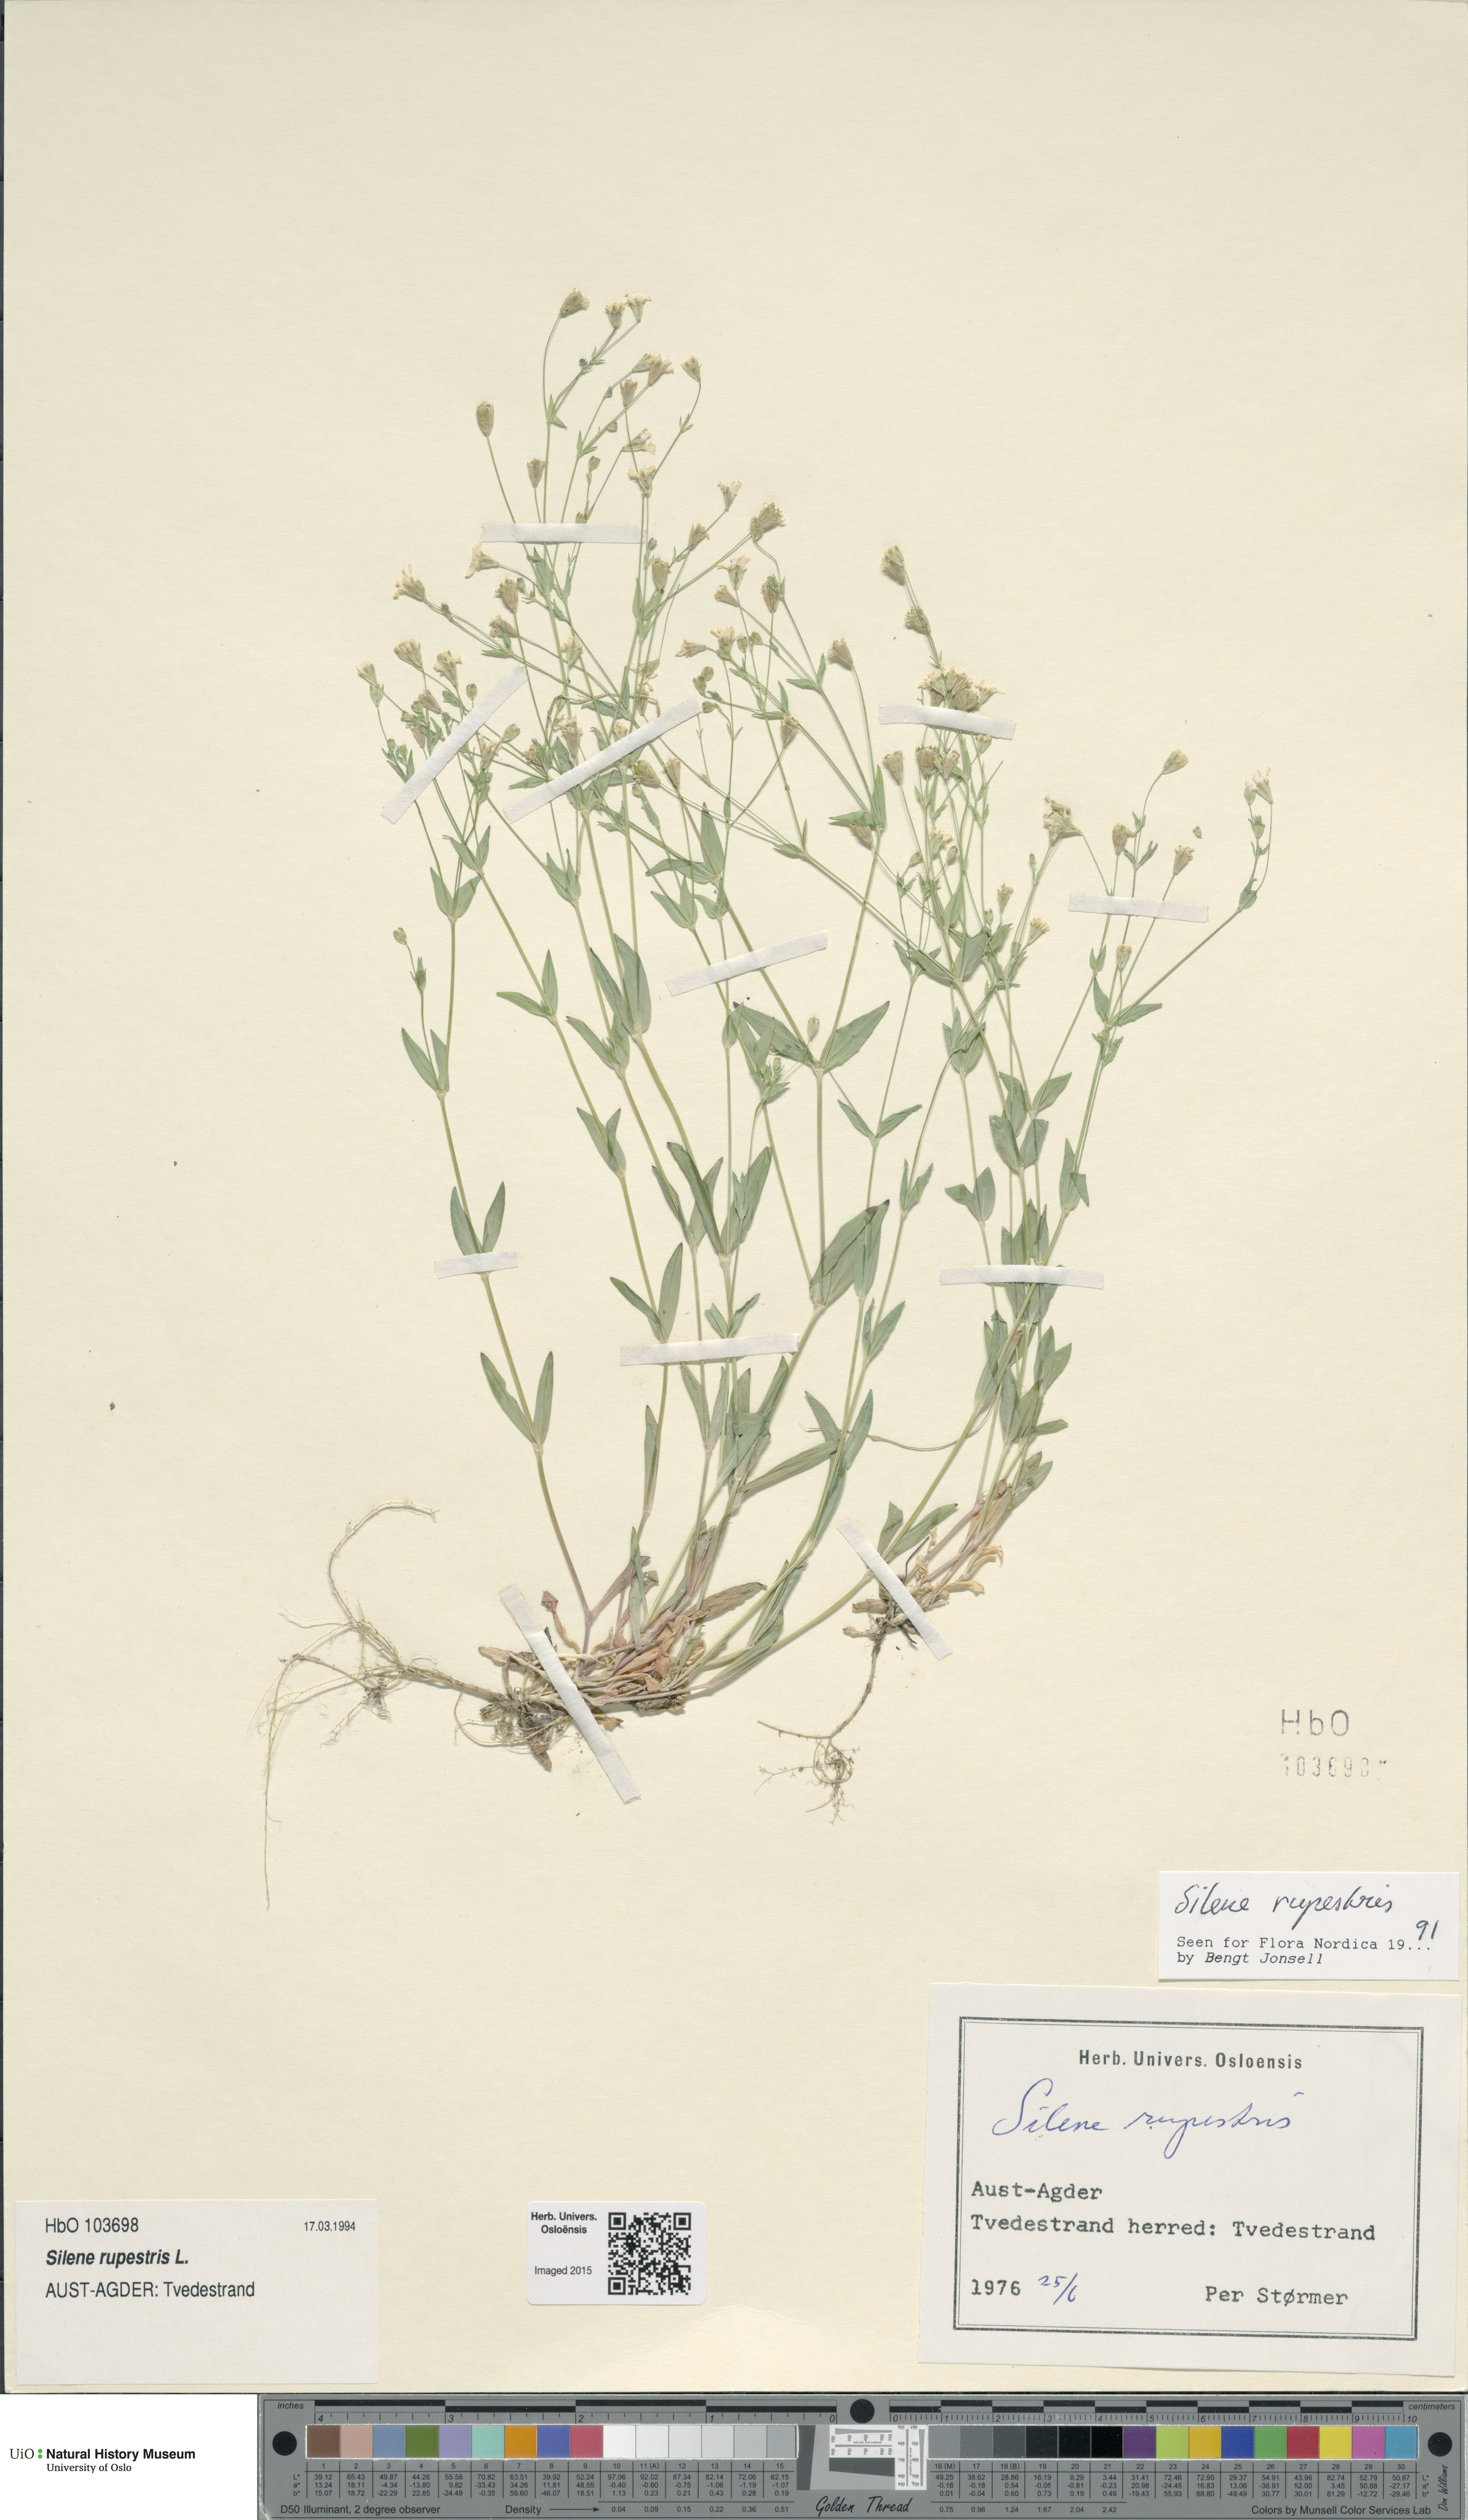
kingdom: Plantae
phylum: Tracheophyta
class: Magnoliopsida
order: Caryophyllales
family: Caryophyllaceae
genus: Atocion
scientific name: Atocion rupestre
